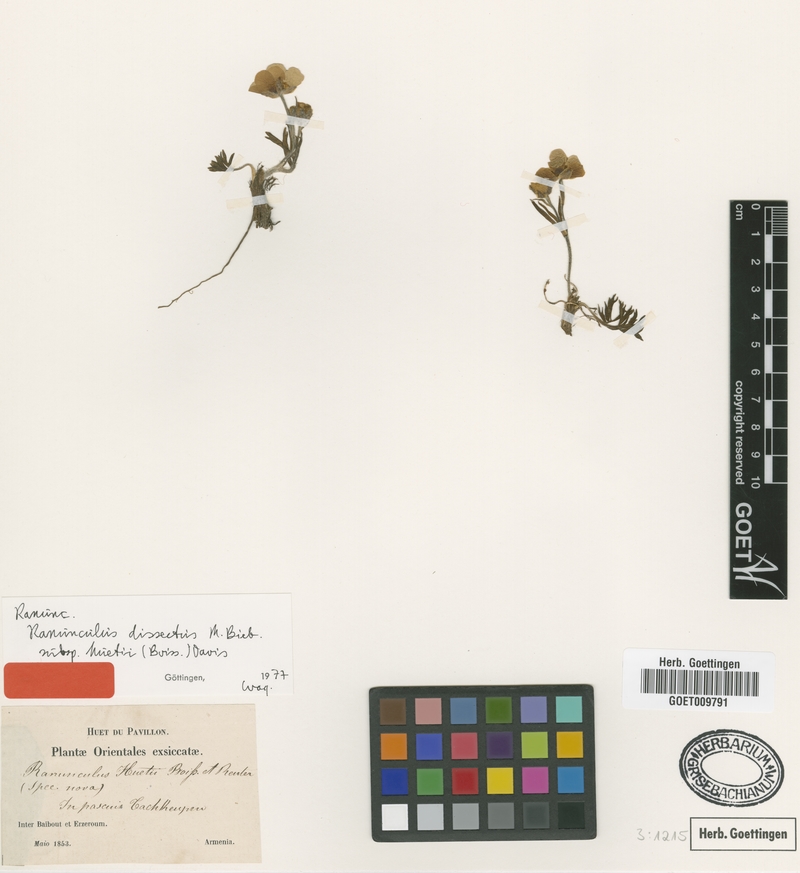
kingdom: Plantae
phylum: Tracheophyta
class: Magnoliopsida
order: Ranunculales
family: Ranunculaceae
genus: Ranunculus
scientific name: Ranunculus dissectus
